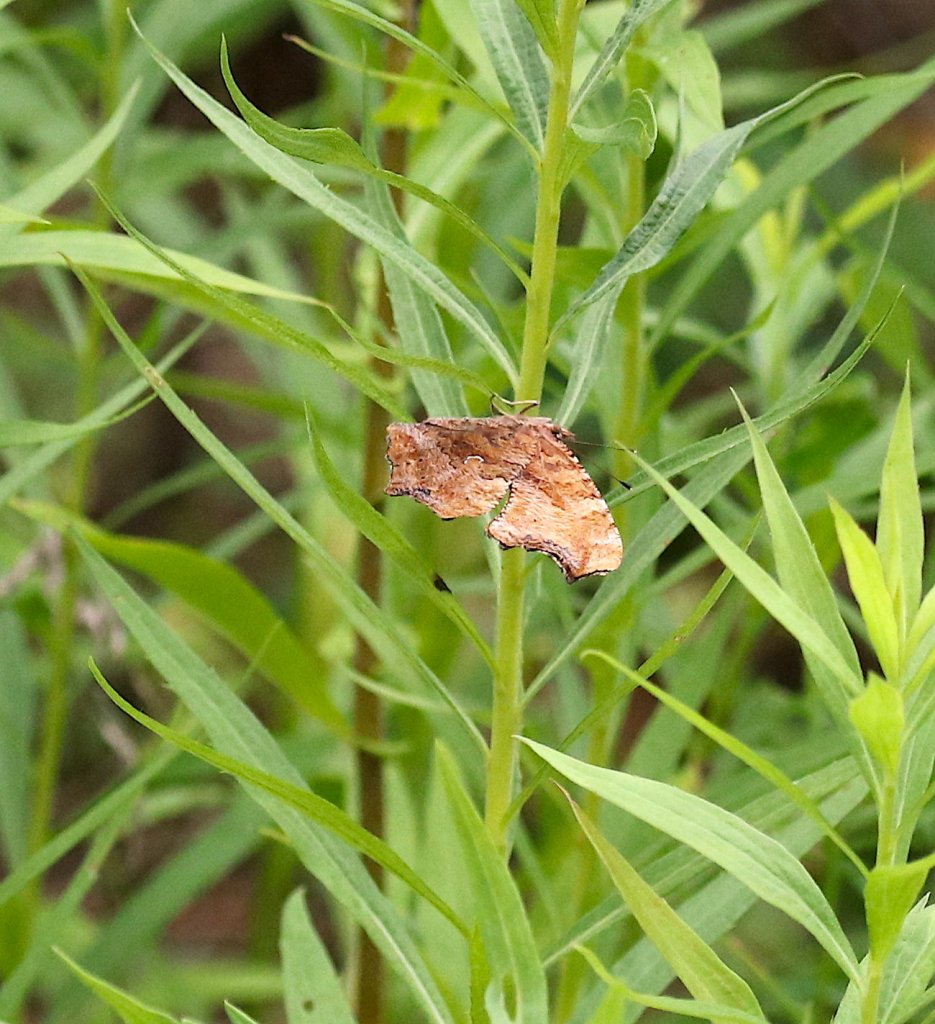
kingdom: Animalia
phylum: Arthropoda
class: Insecta
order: Lepidoptera
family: Nymphalidae
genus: Polygonia
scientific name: Polygonia interrogationis
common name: Question Mark
